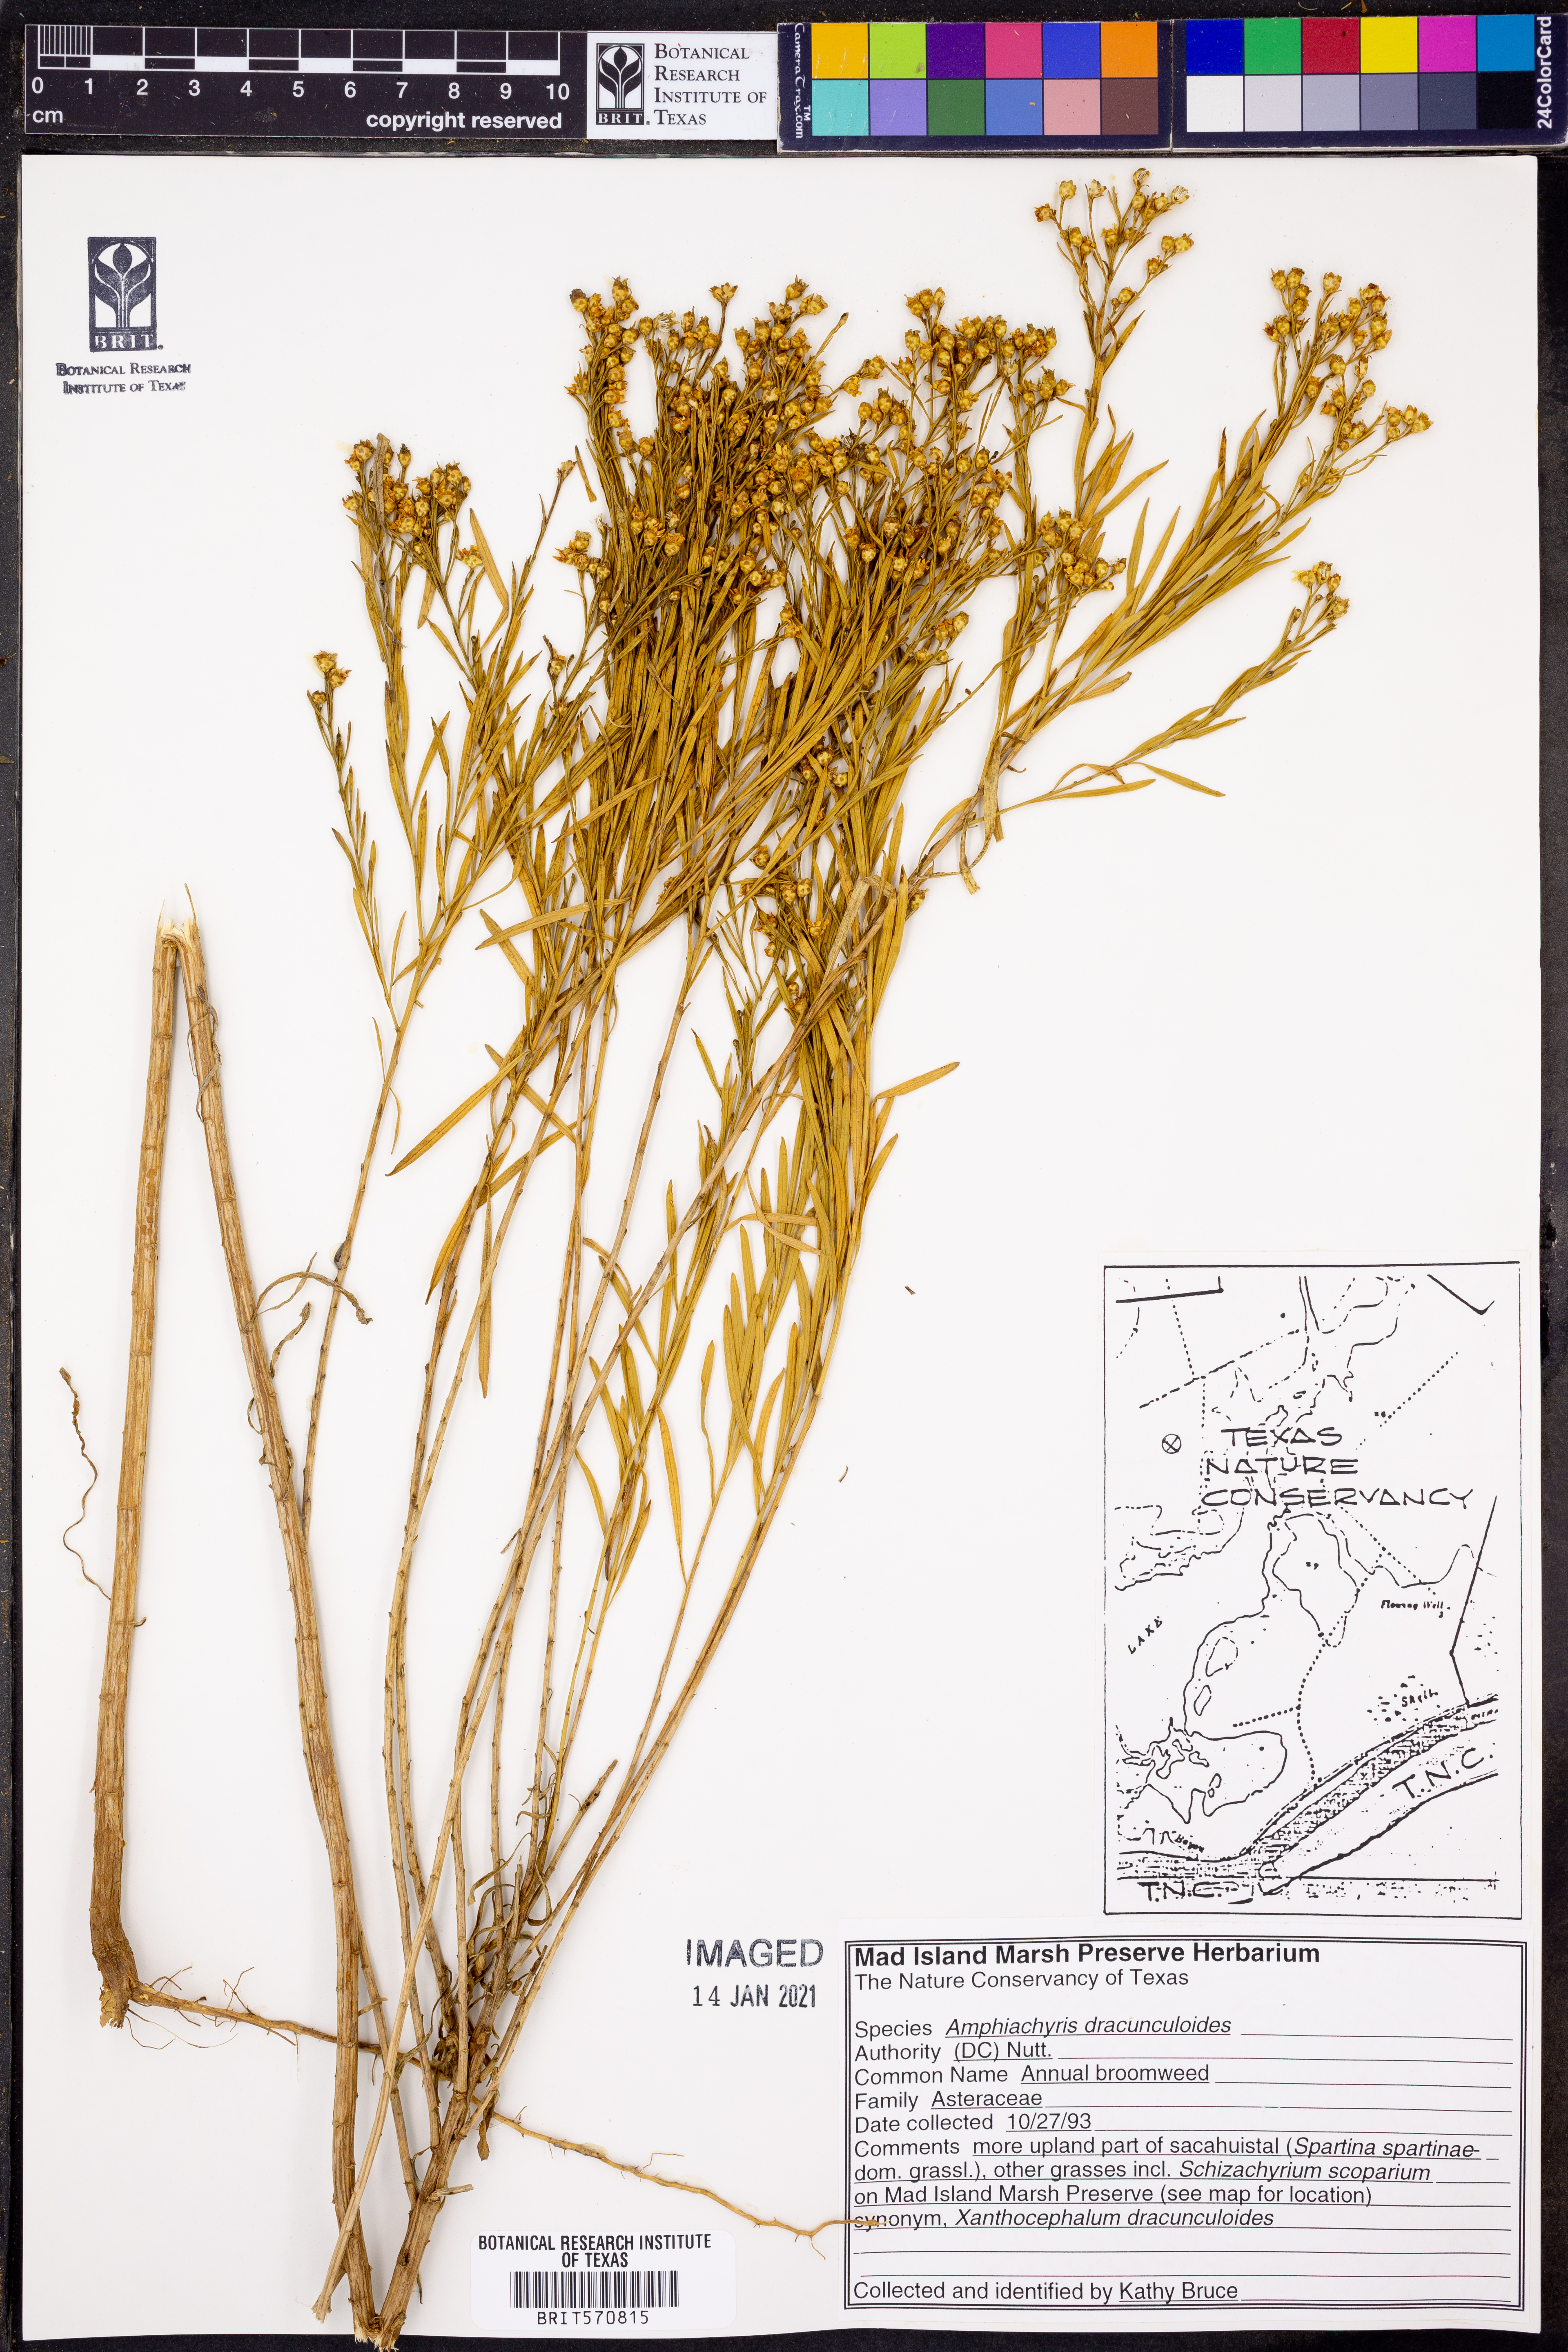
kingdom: Plantae
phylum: Tracheophyta
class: Magnoliopsida
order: Asterales
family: Asteraceae
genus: Amphiachyris
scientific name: Amphiachyris dracunculoides
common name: Broomweed
